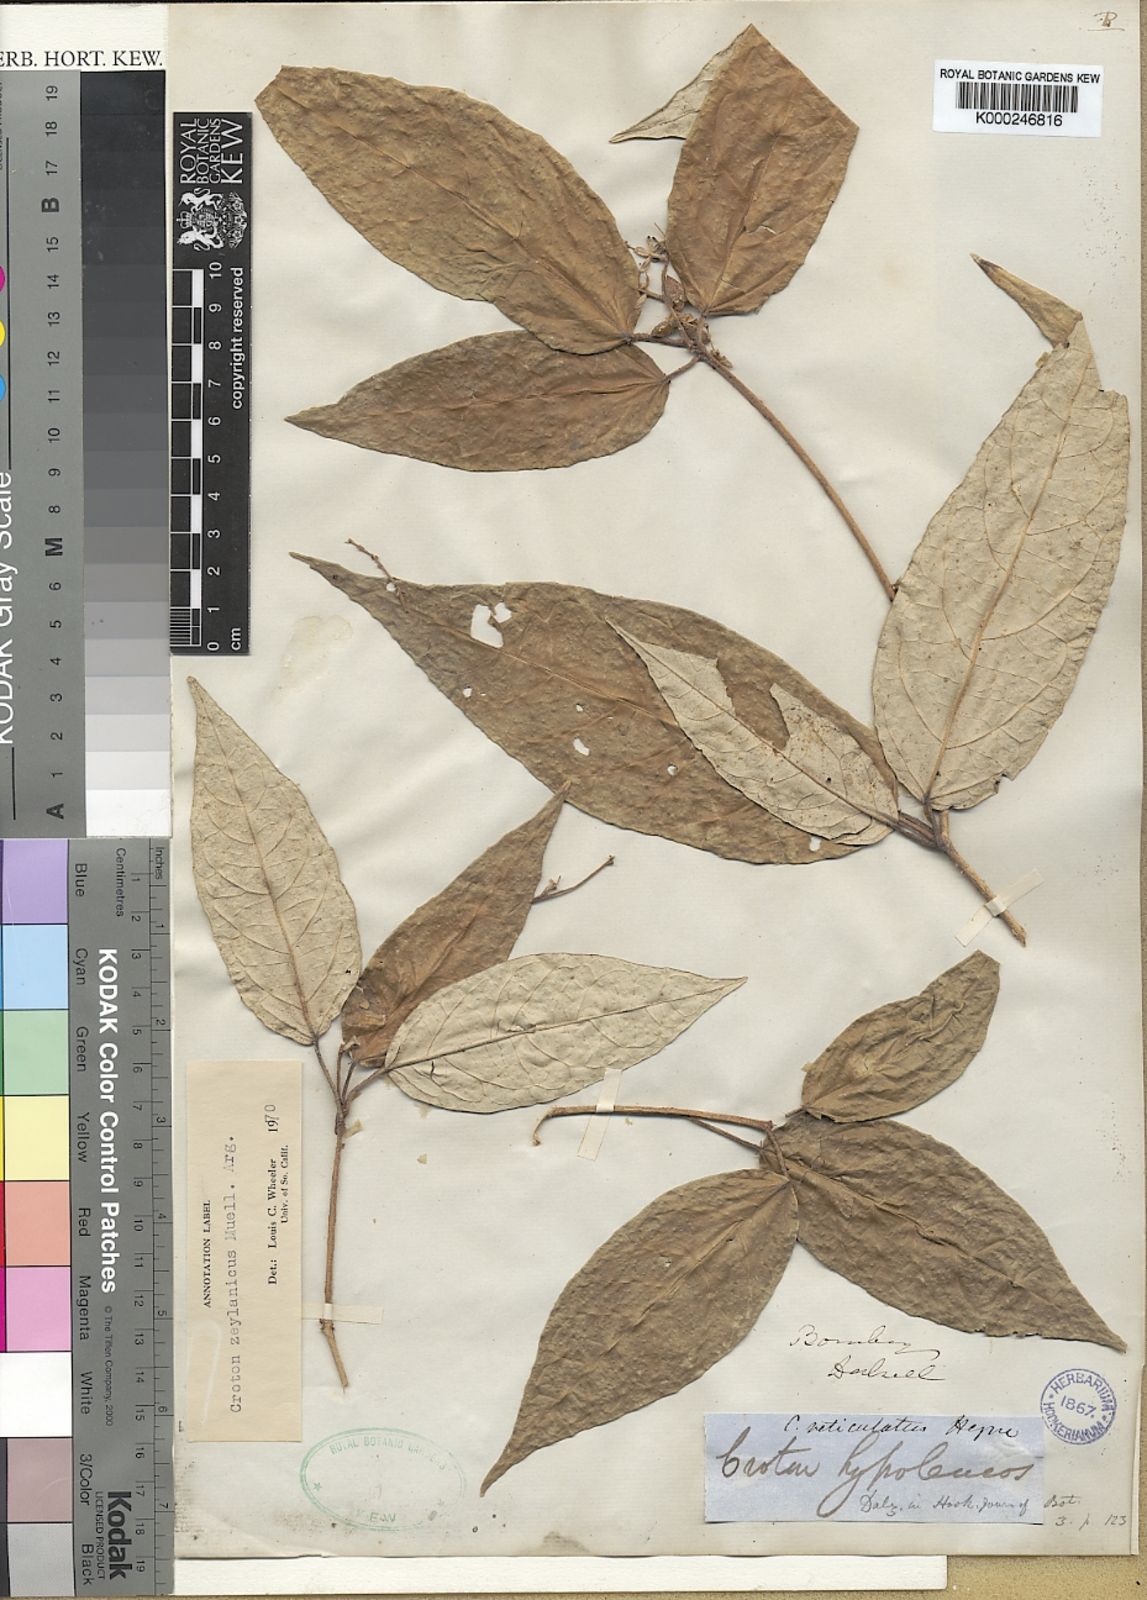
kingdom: Plantae
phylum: Tracheophyta
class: Magnoliopsida
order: Malpighiales
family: Euphorbiaceae
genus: Croton
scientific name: Croton
